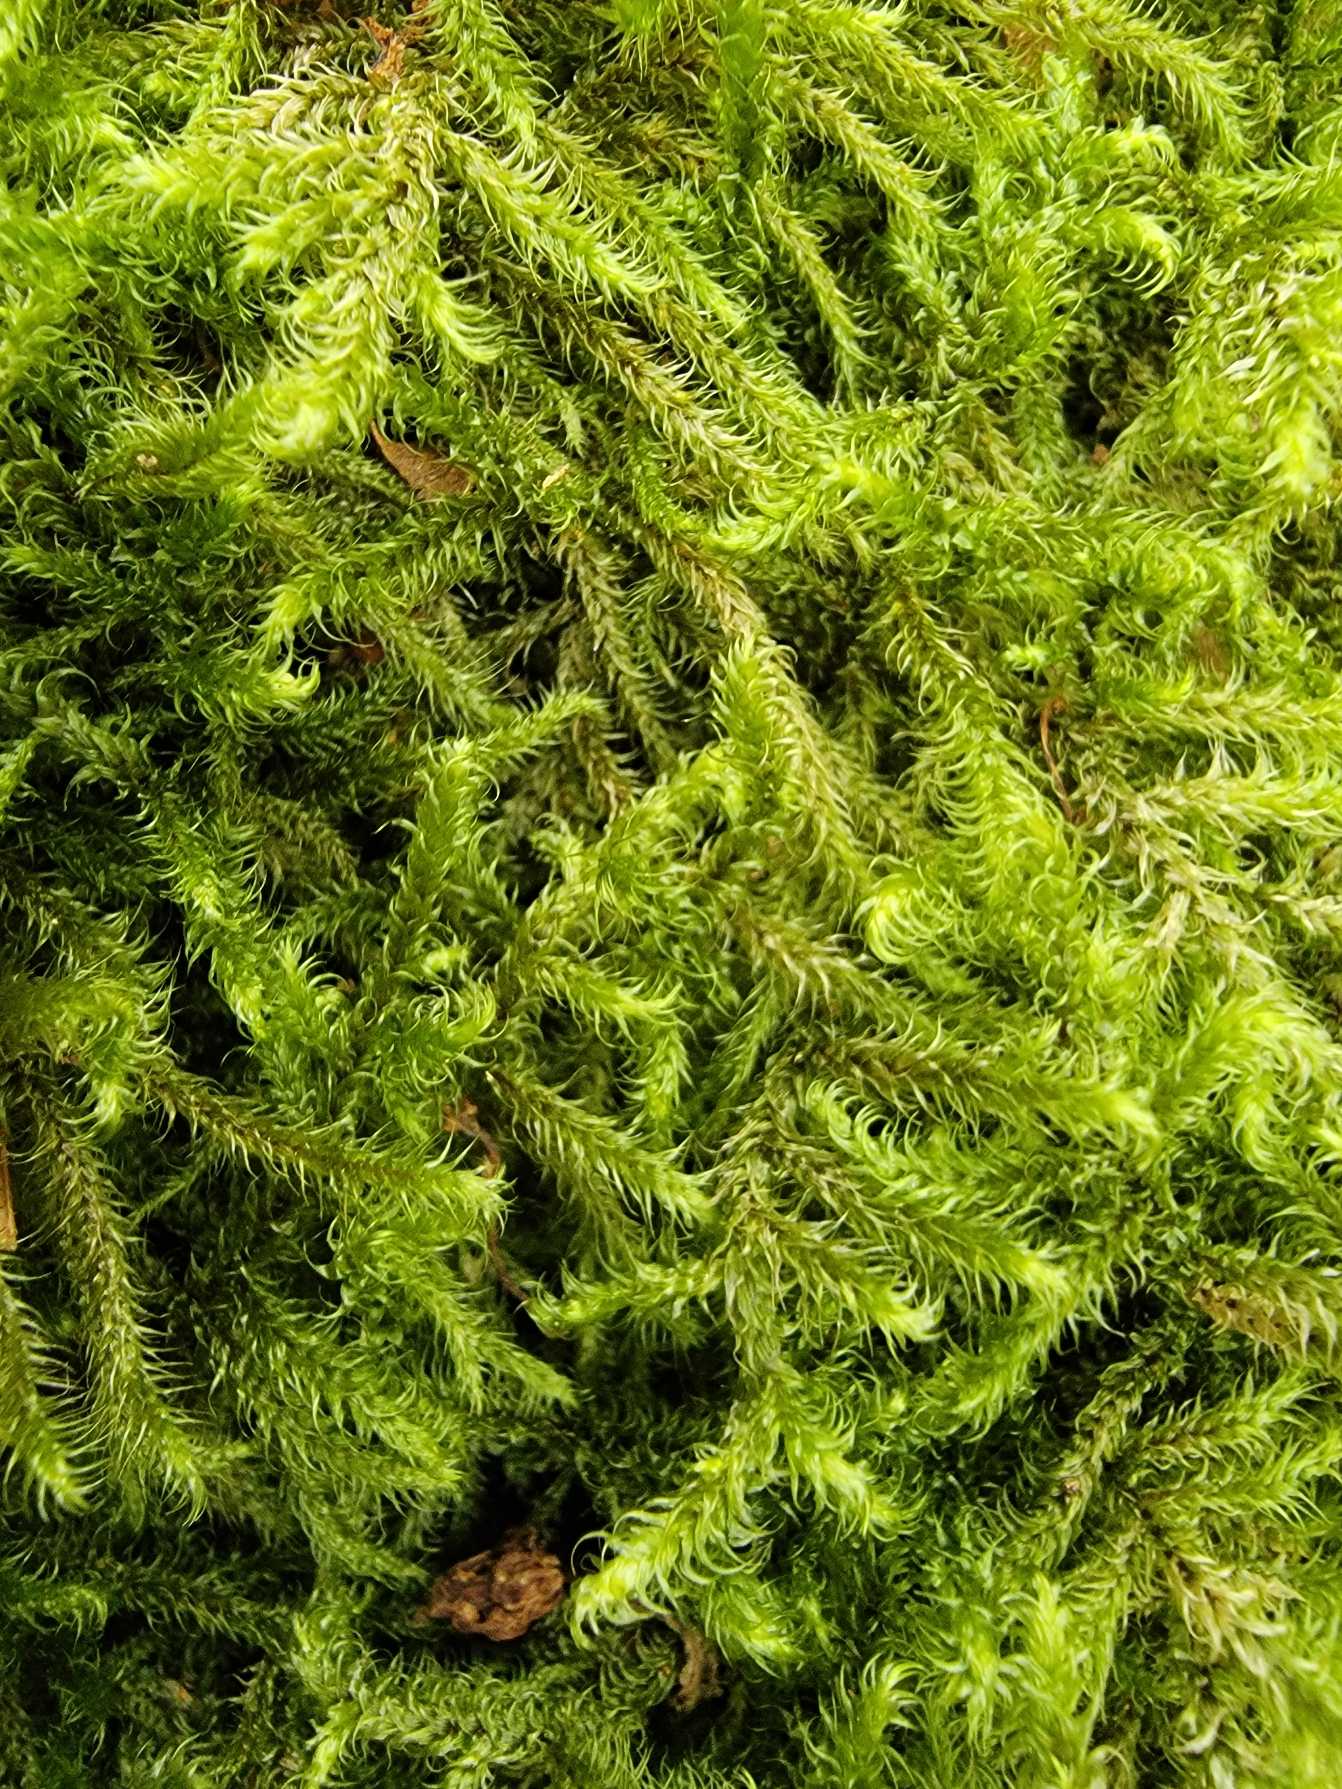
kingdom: Plantae
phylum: Bryophyta
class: Bryopsida
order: Hypnales
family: Hylocomiaceae
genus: Rhytidiadelphus
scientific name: Rhytidiadelphus loreus
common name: Ulvefod-kransemos
